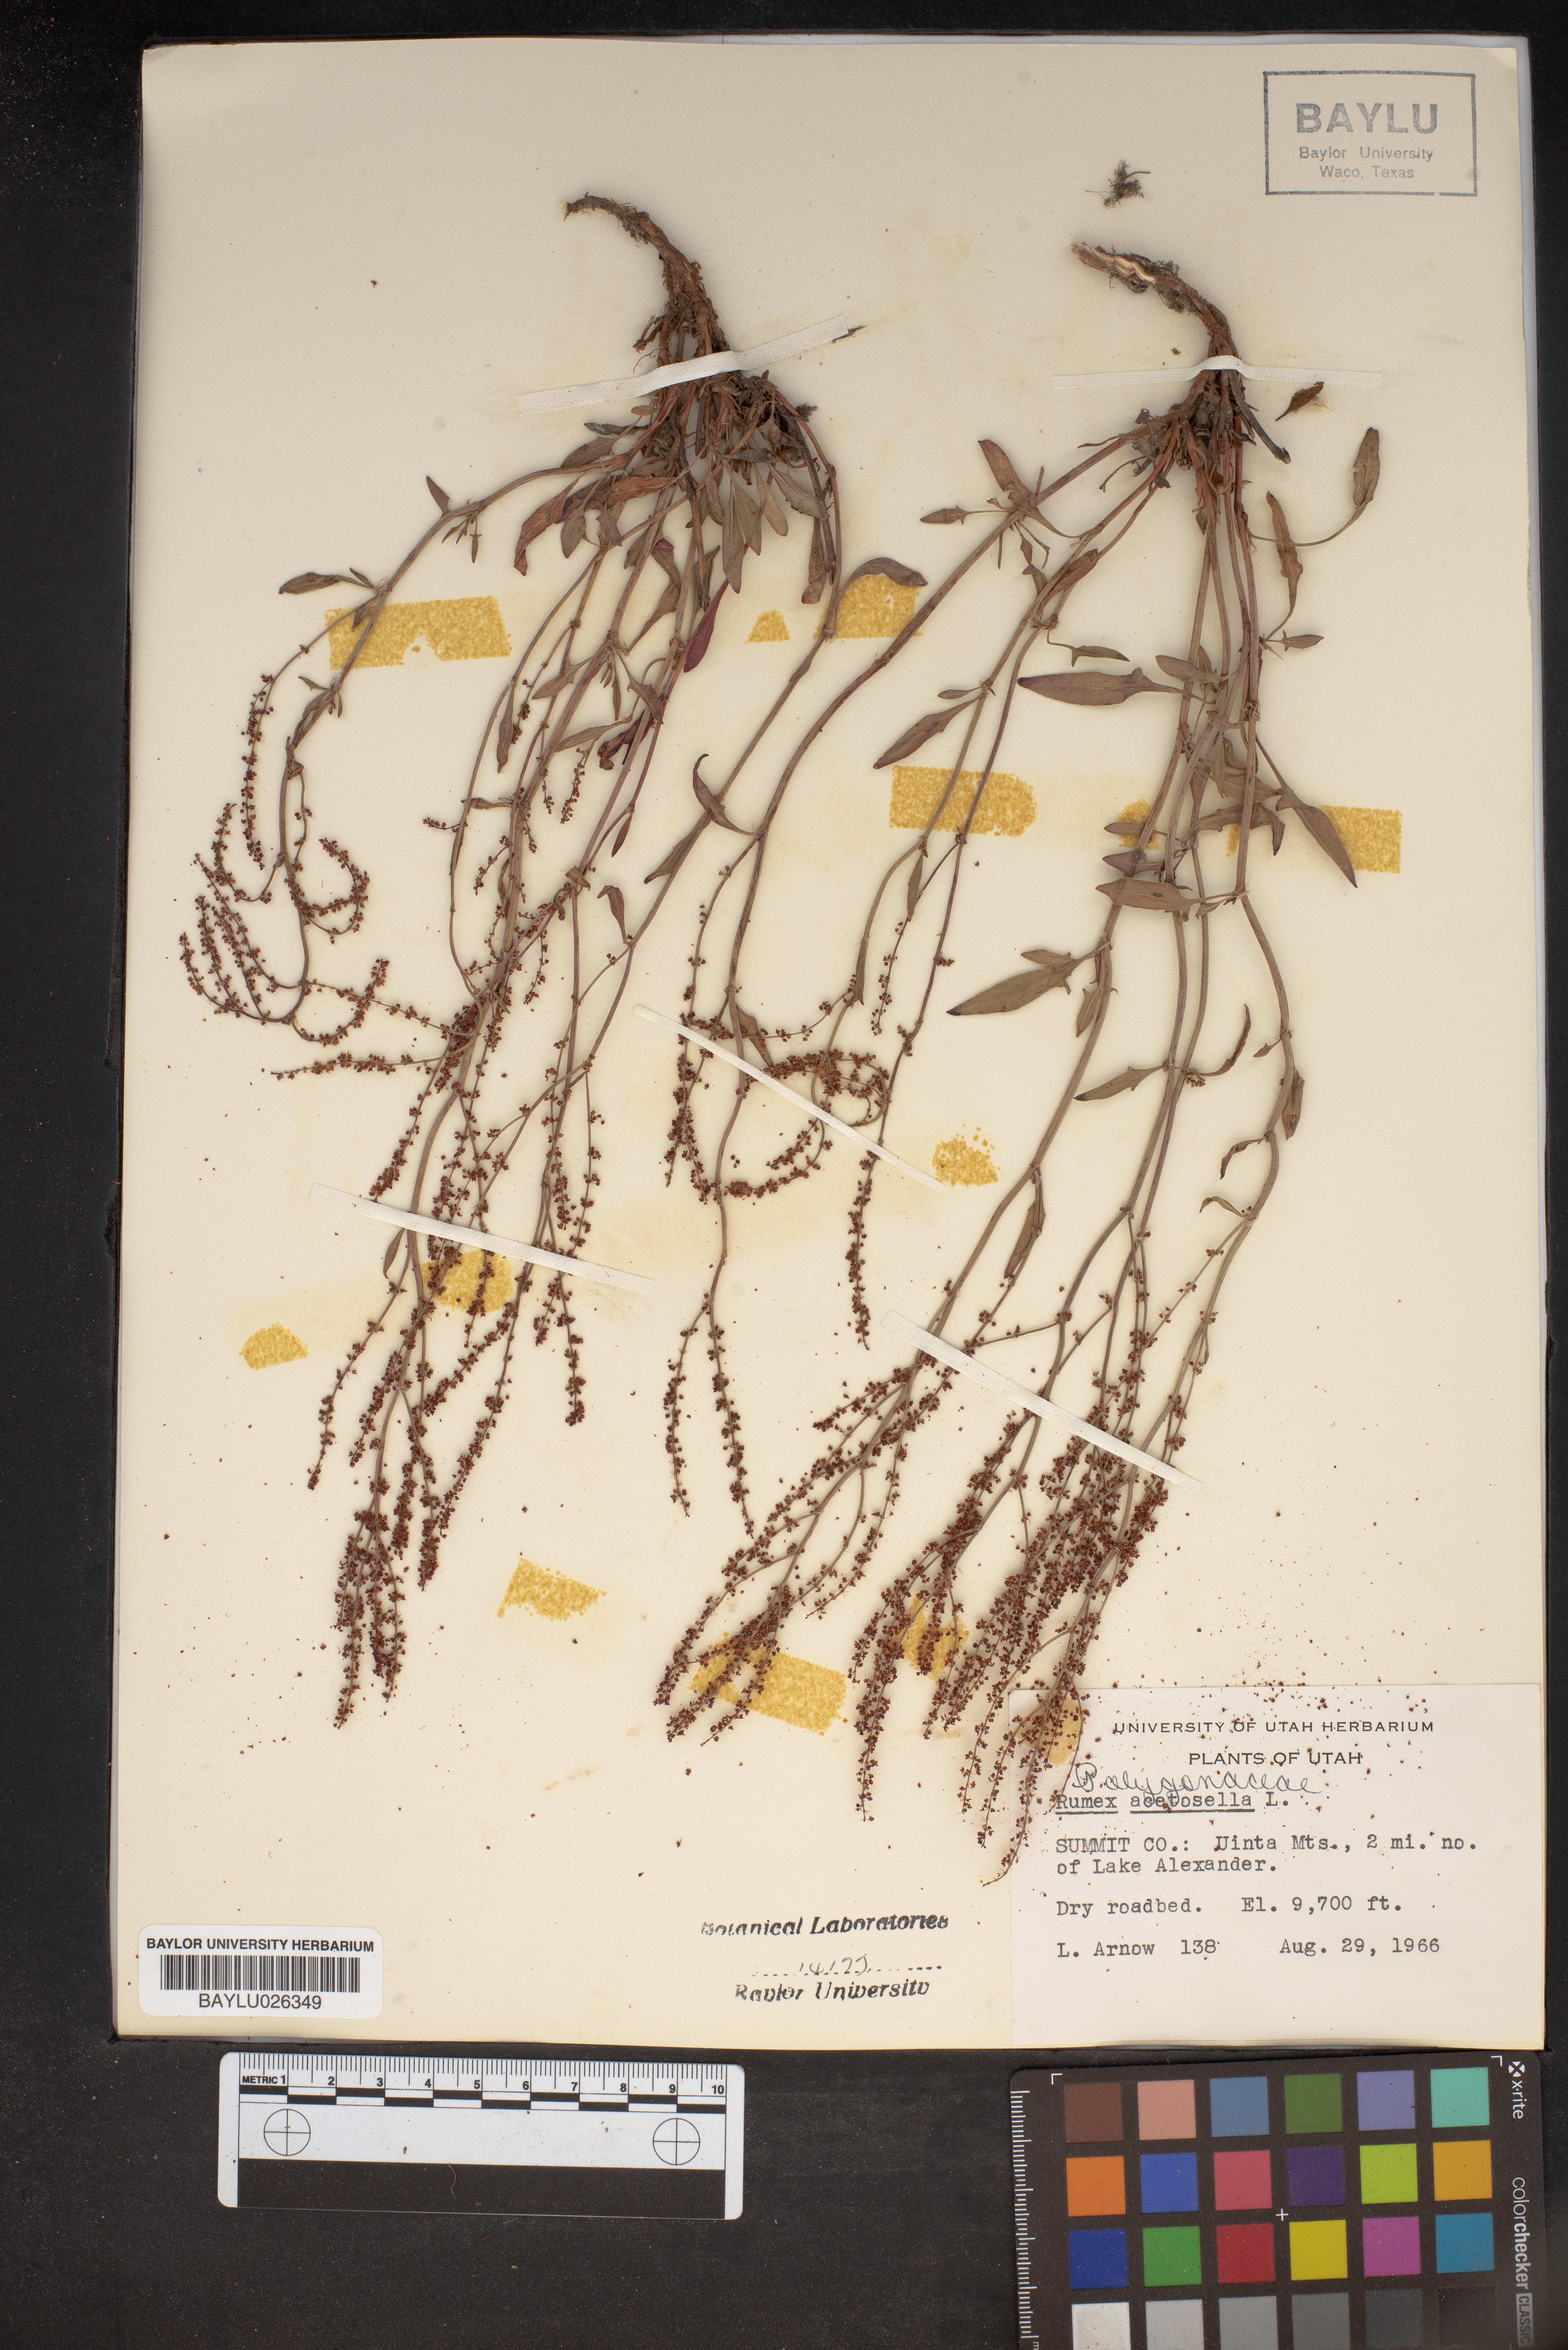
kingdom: Plantae
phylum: Tracheophyta
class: Magnoliopsida
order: Caryophyllales
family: Polygonaceae
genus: Rumex
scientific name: Rumex acetosella
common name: Common sheep sorrel
